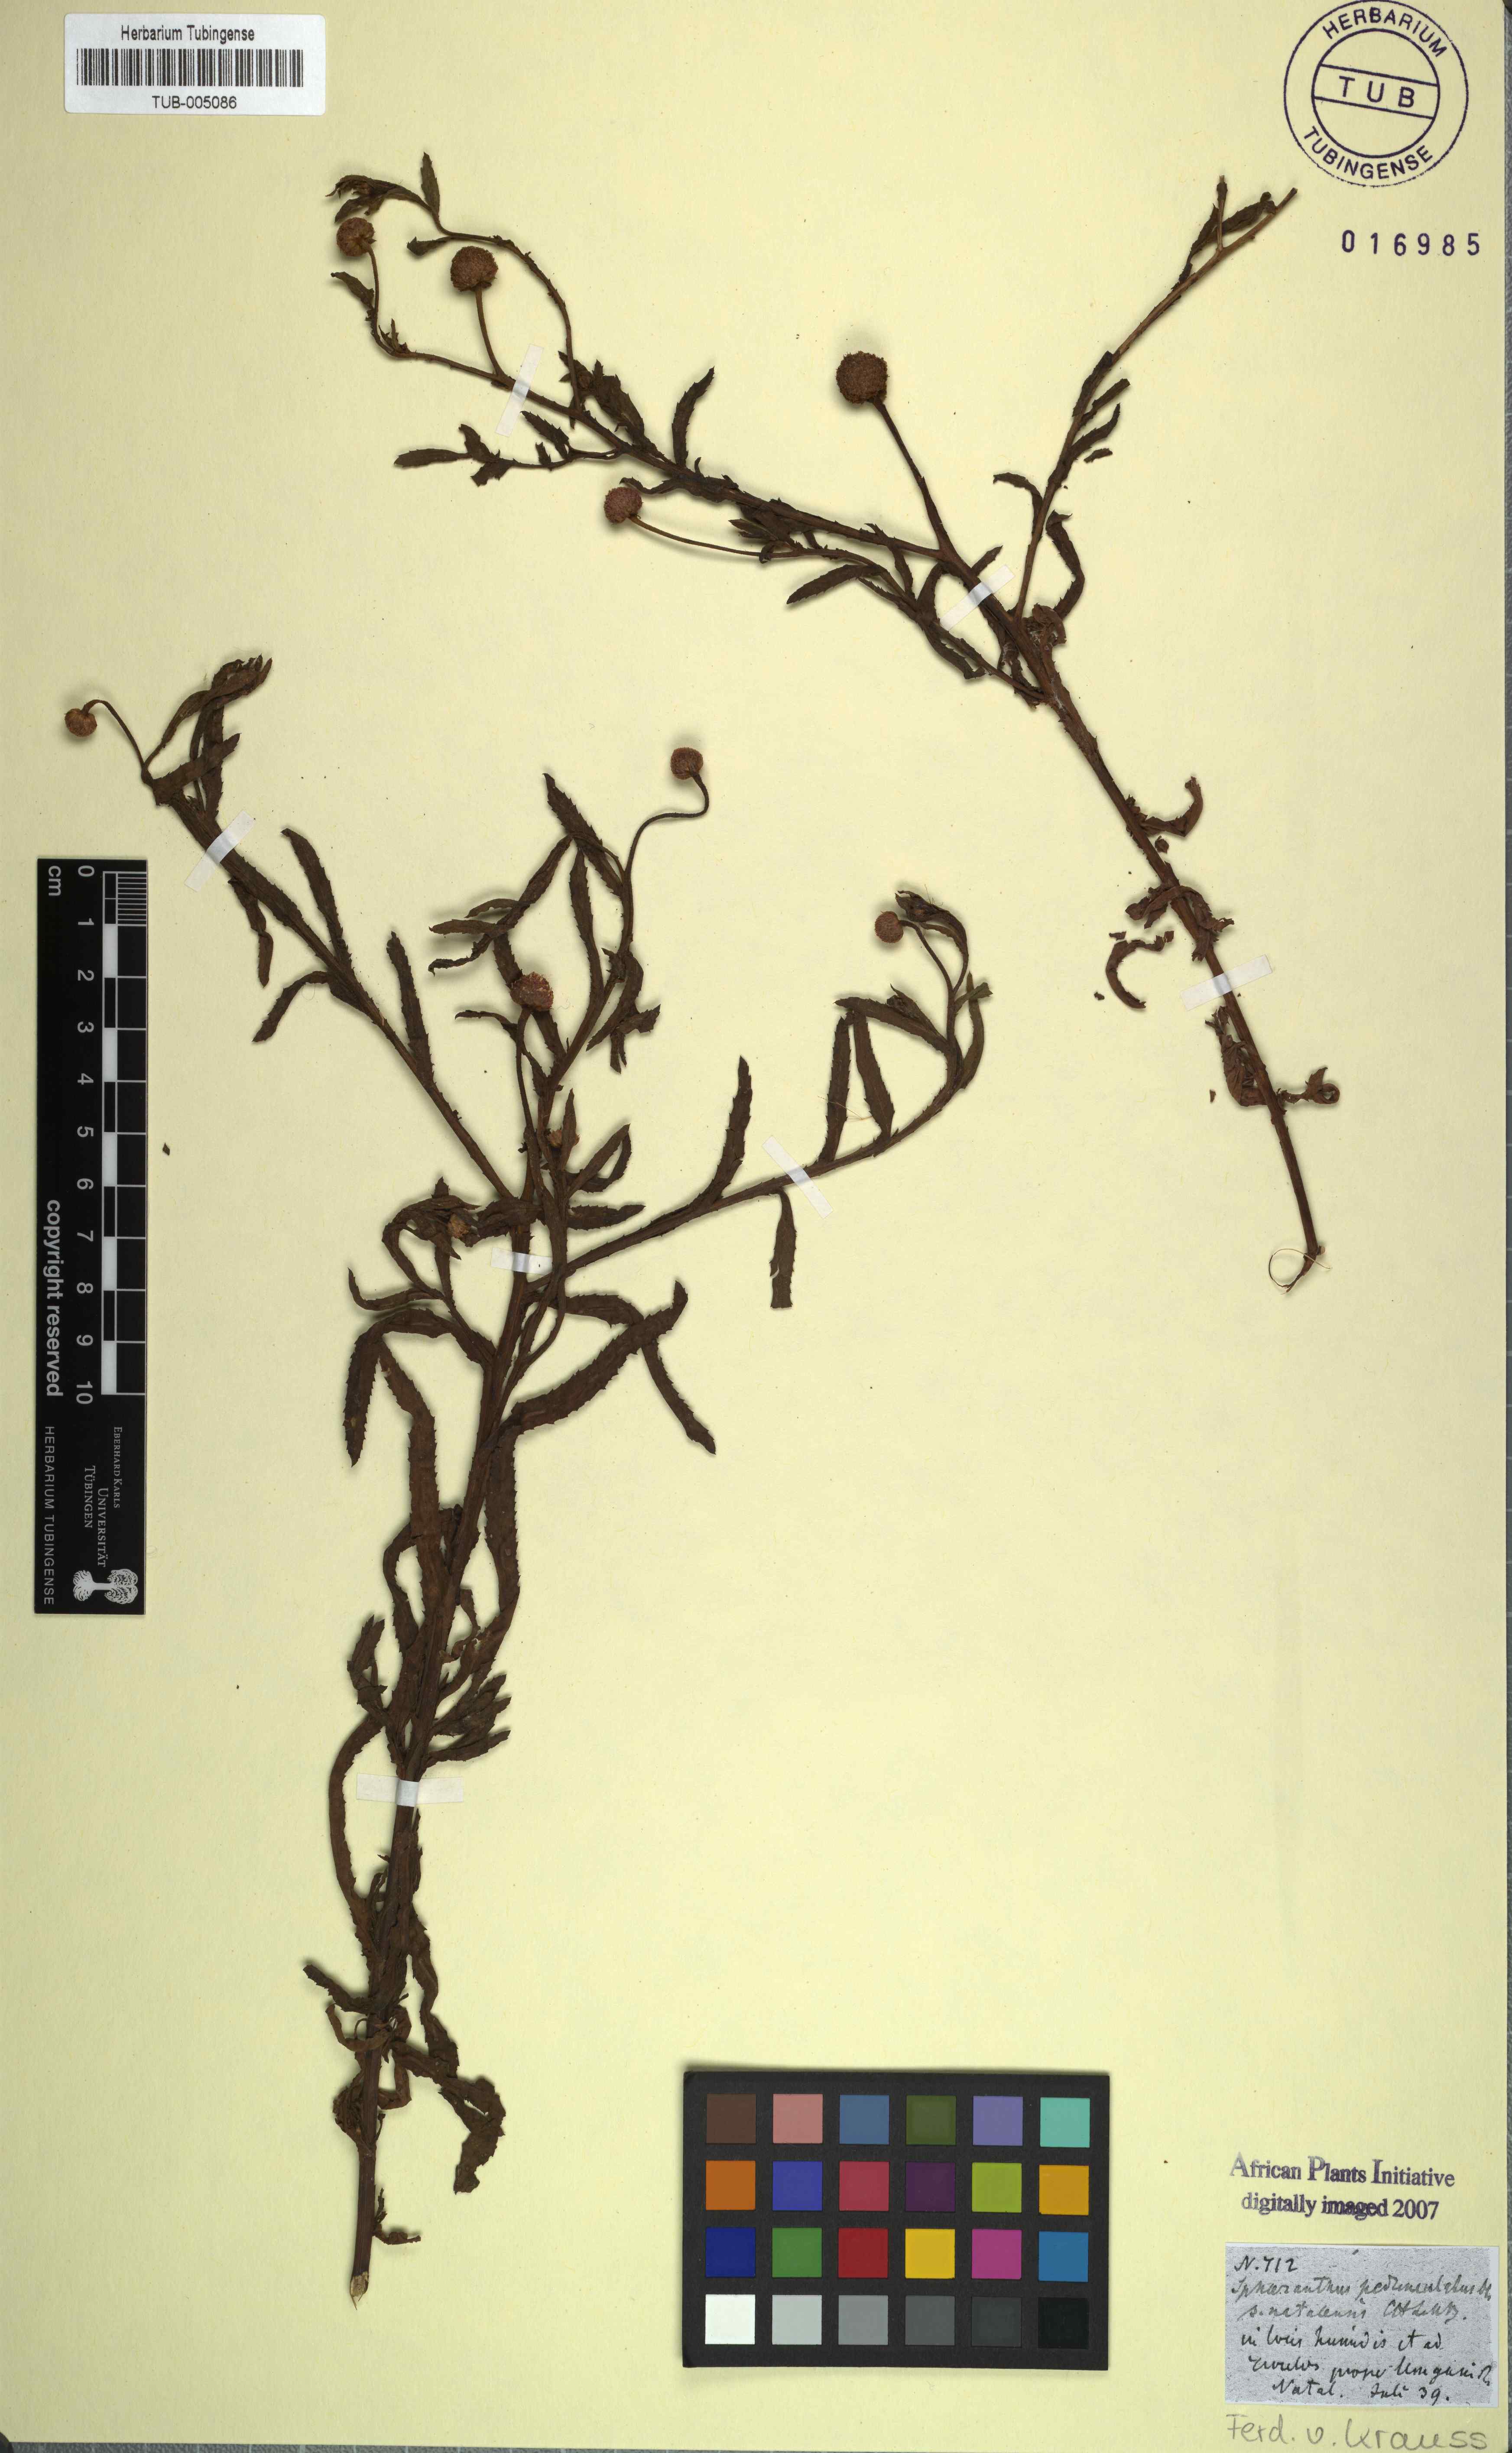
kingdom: Plantae
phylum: Tracheophyta
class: Magnoliopsida
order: Asterales
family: Asteraceae
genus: Sphaeranthus
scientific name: Sphaeranthus peduncularis
